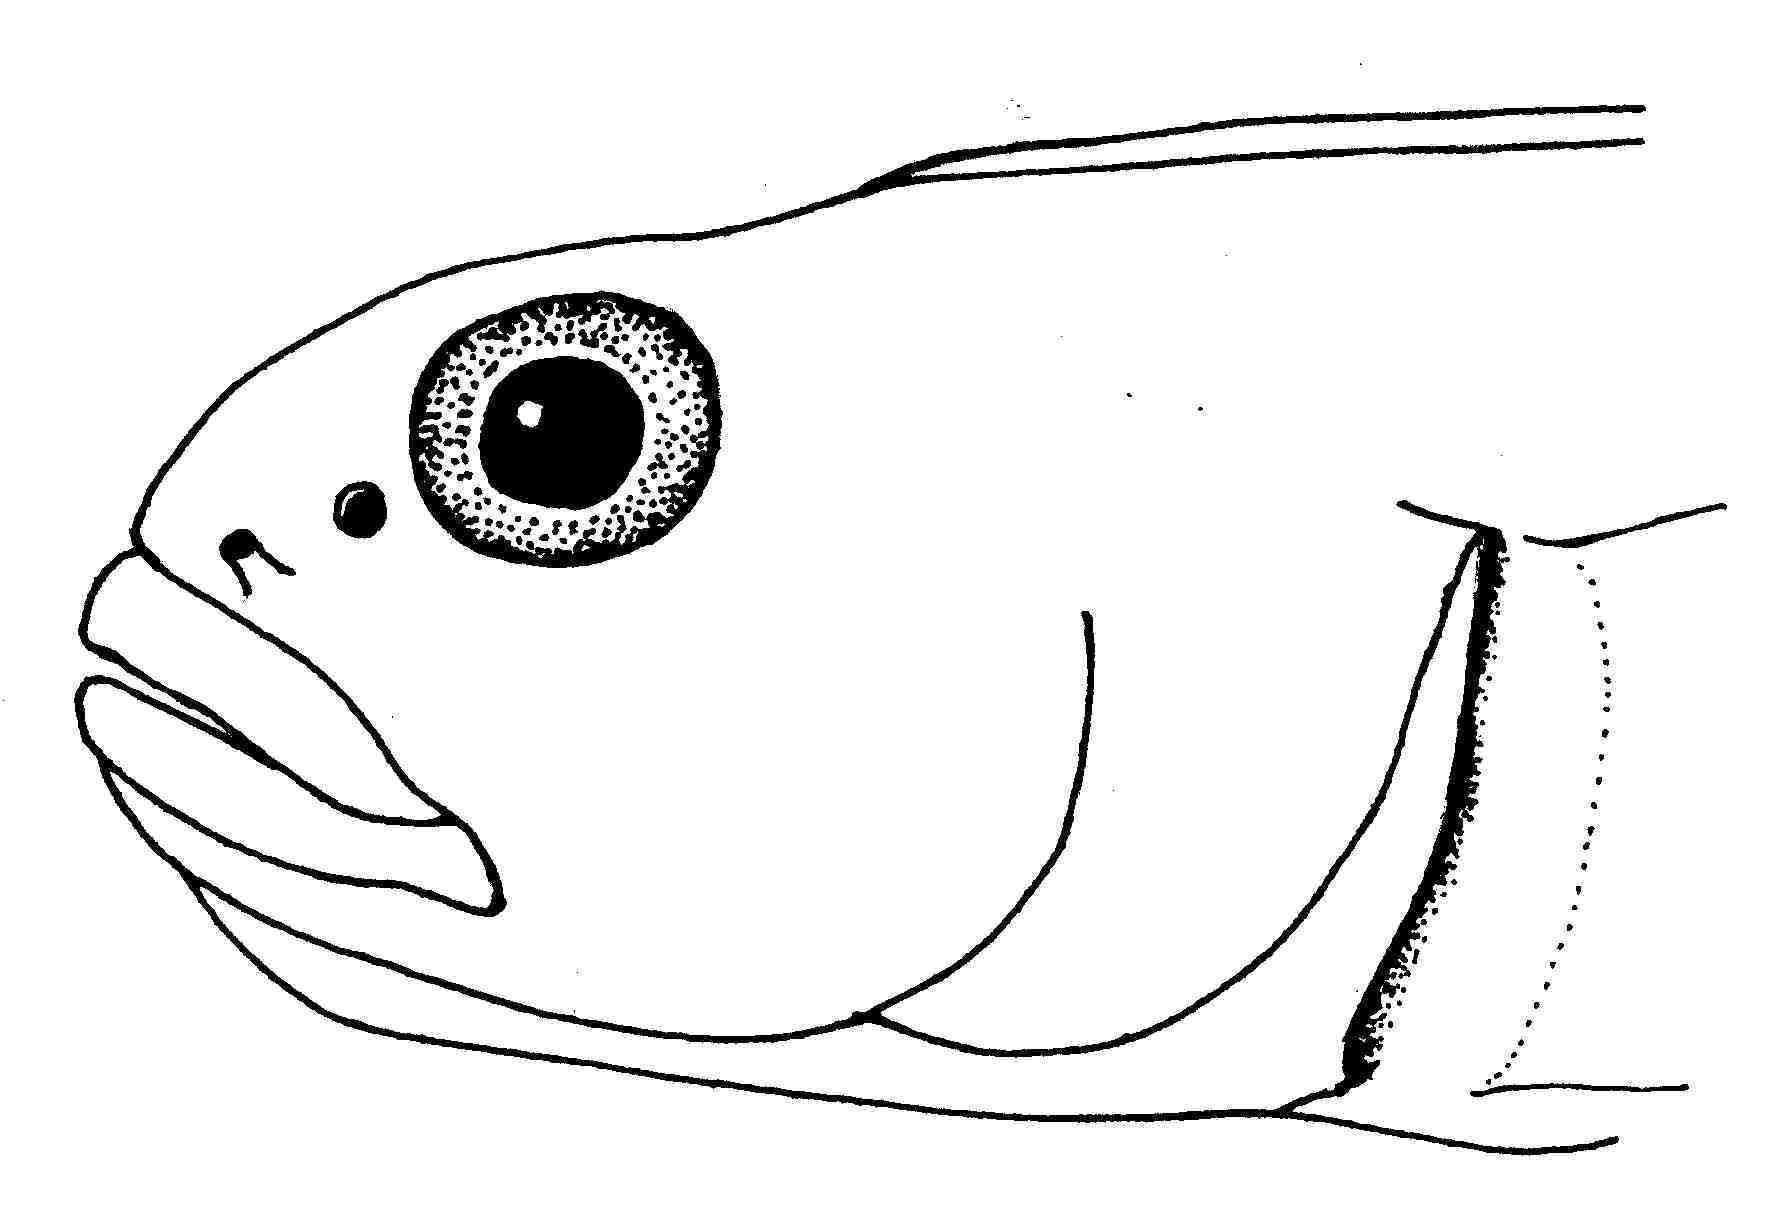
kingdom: Animalia
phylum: Chordata
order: Perciformes
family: Gobiidae
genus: Cryptocentroides
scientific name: Cryptocentroides
